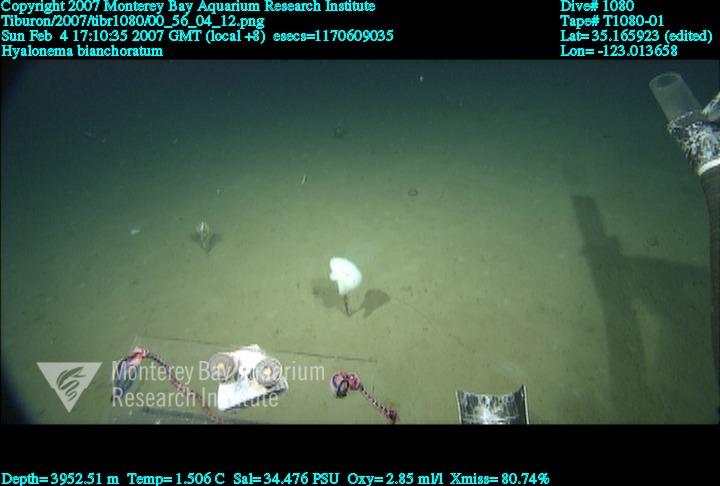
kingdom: Animalia
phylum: Porifera
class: Hexactinellida
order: Amphidiscosida
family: Hyalonematidae
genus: Hyalonema
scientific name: Hyalonema bianchoratum
